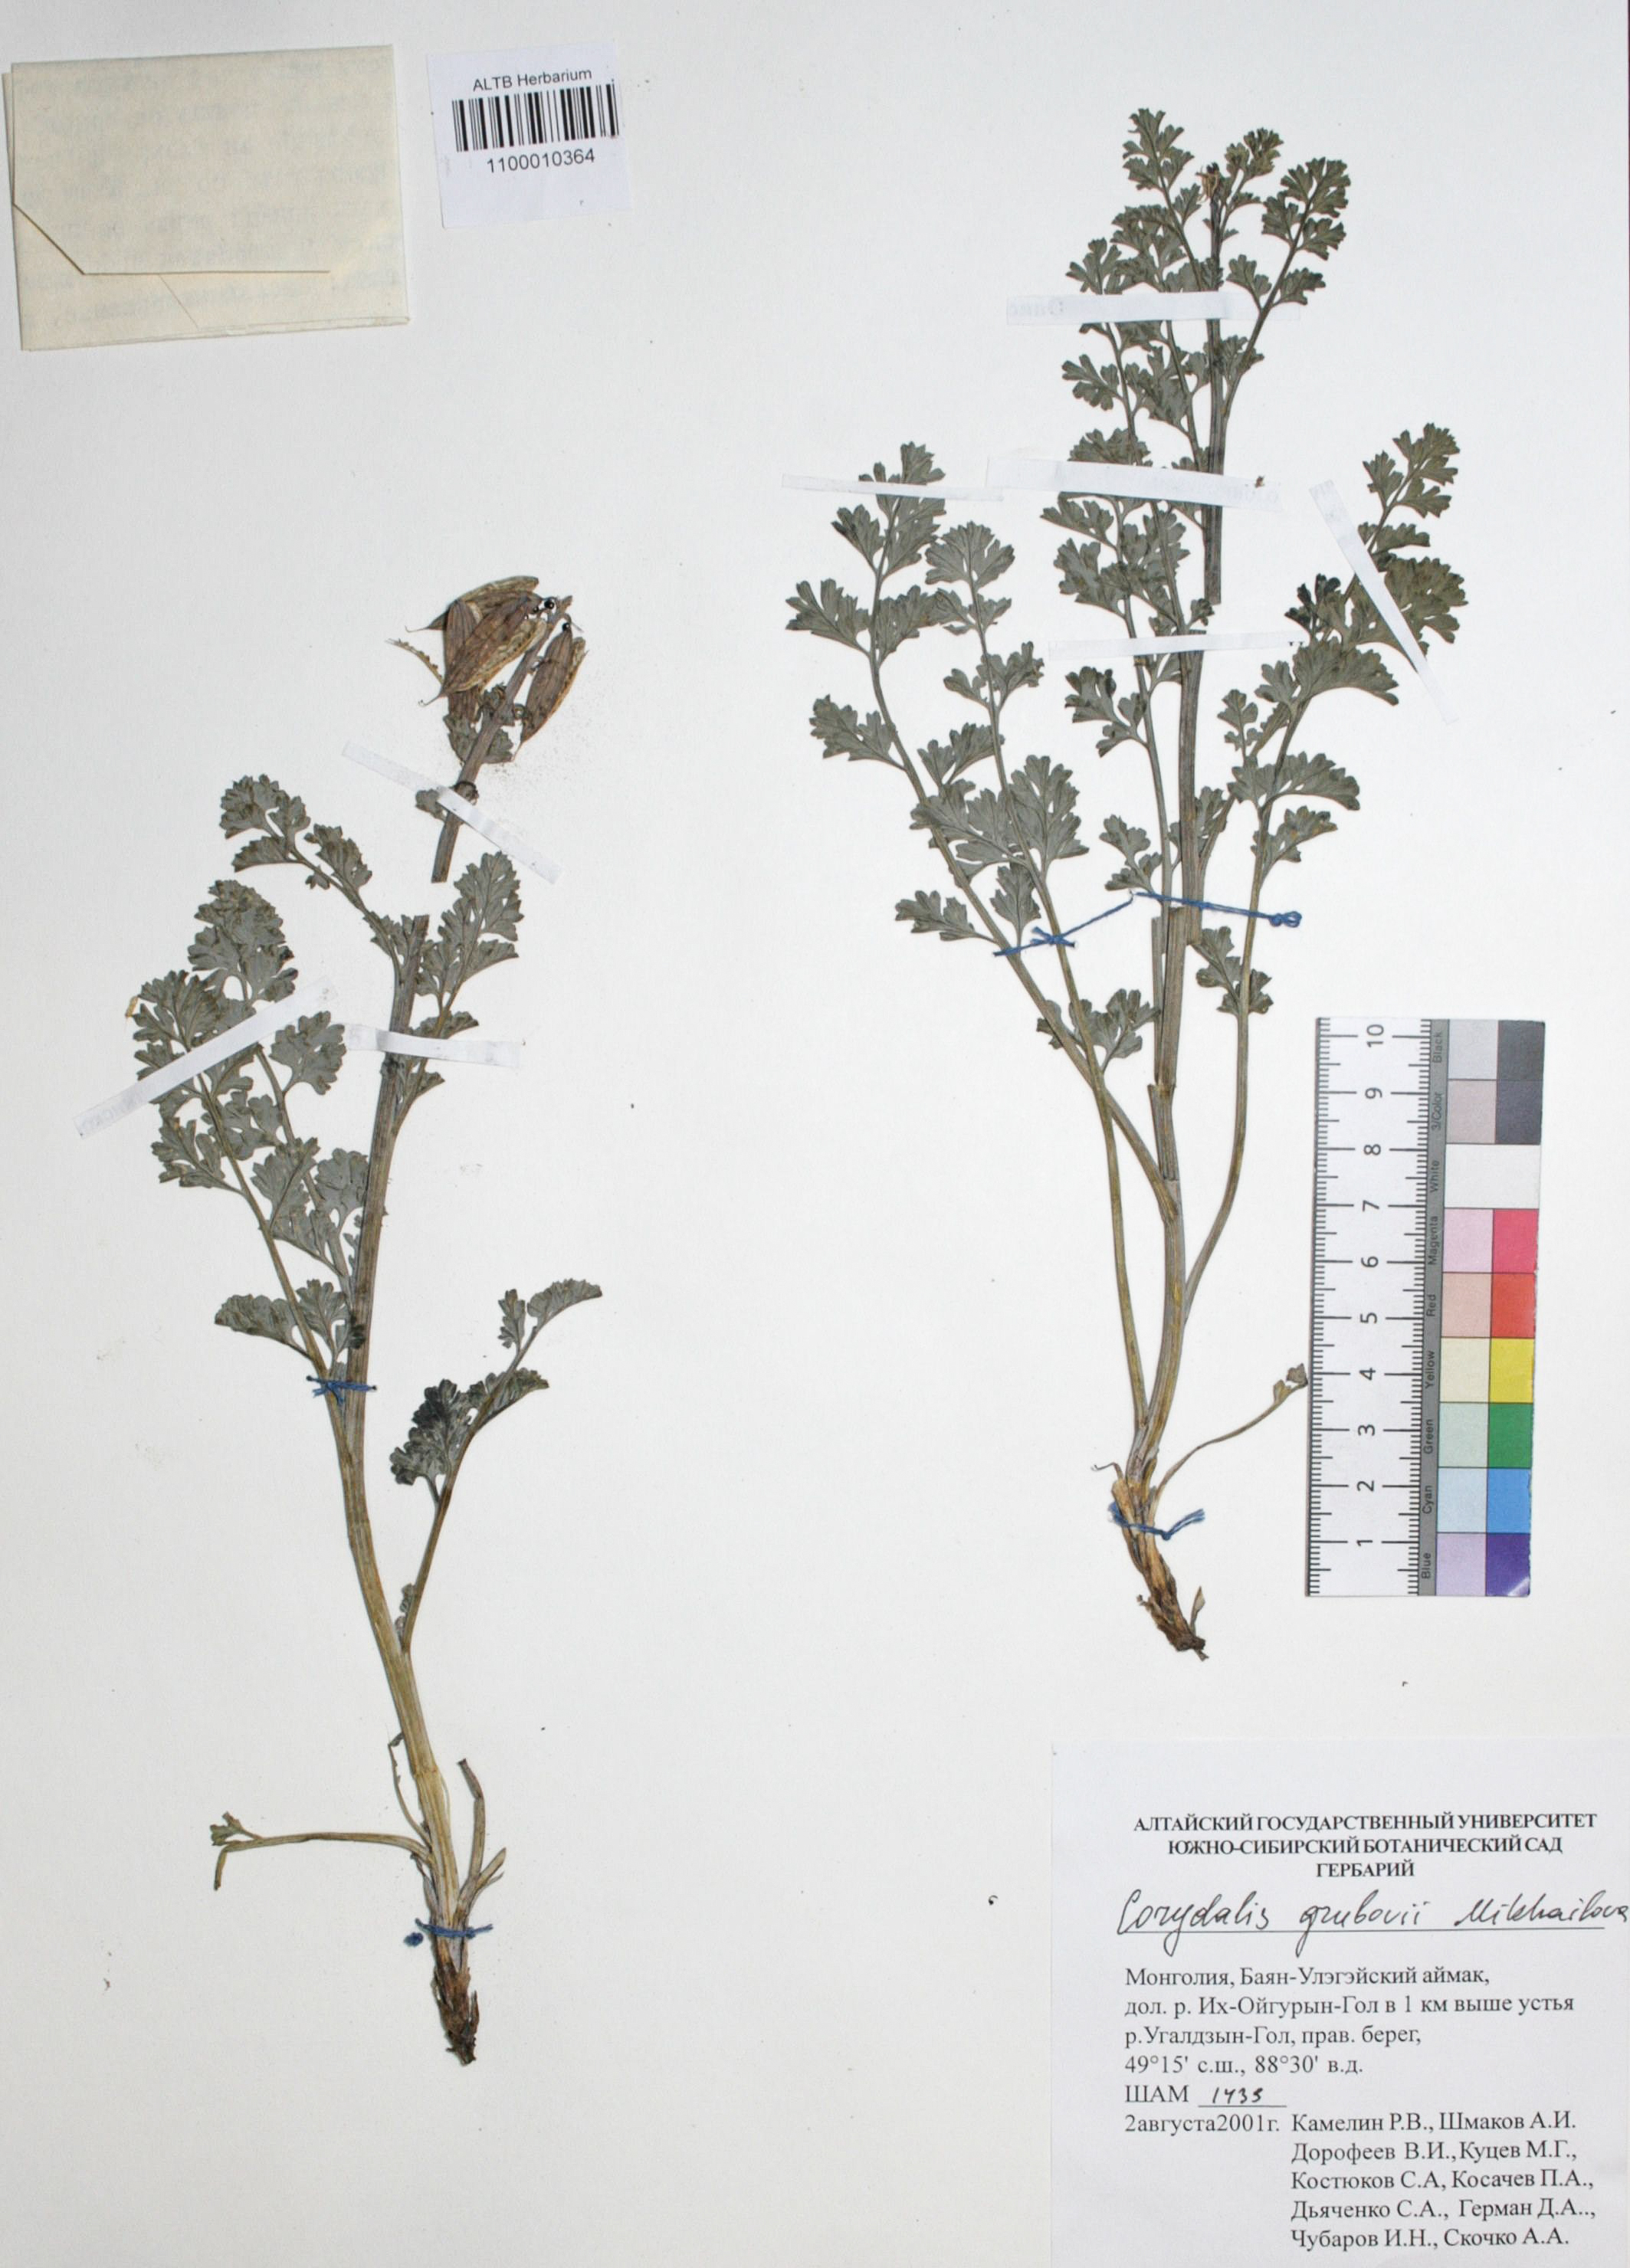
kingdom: Plantae
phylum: Tracheophyta
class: Magnoliopsida
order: Ranunculales
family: Papaveraceae
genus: Corydalis
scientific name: Corydalis stricta
